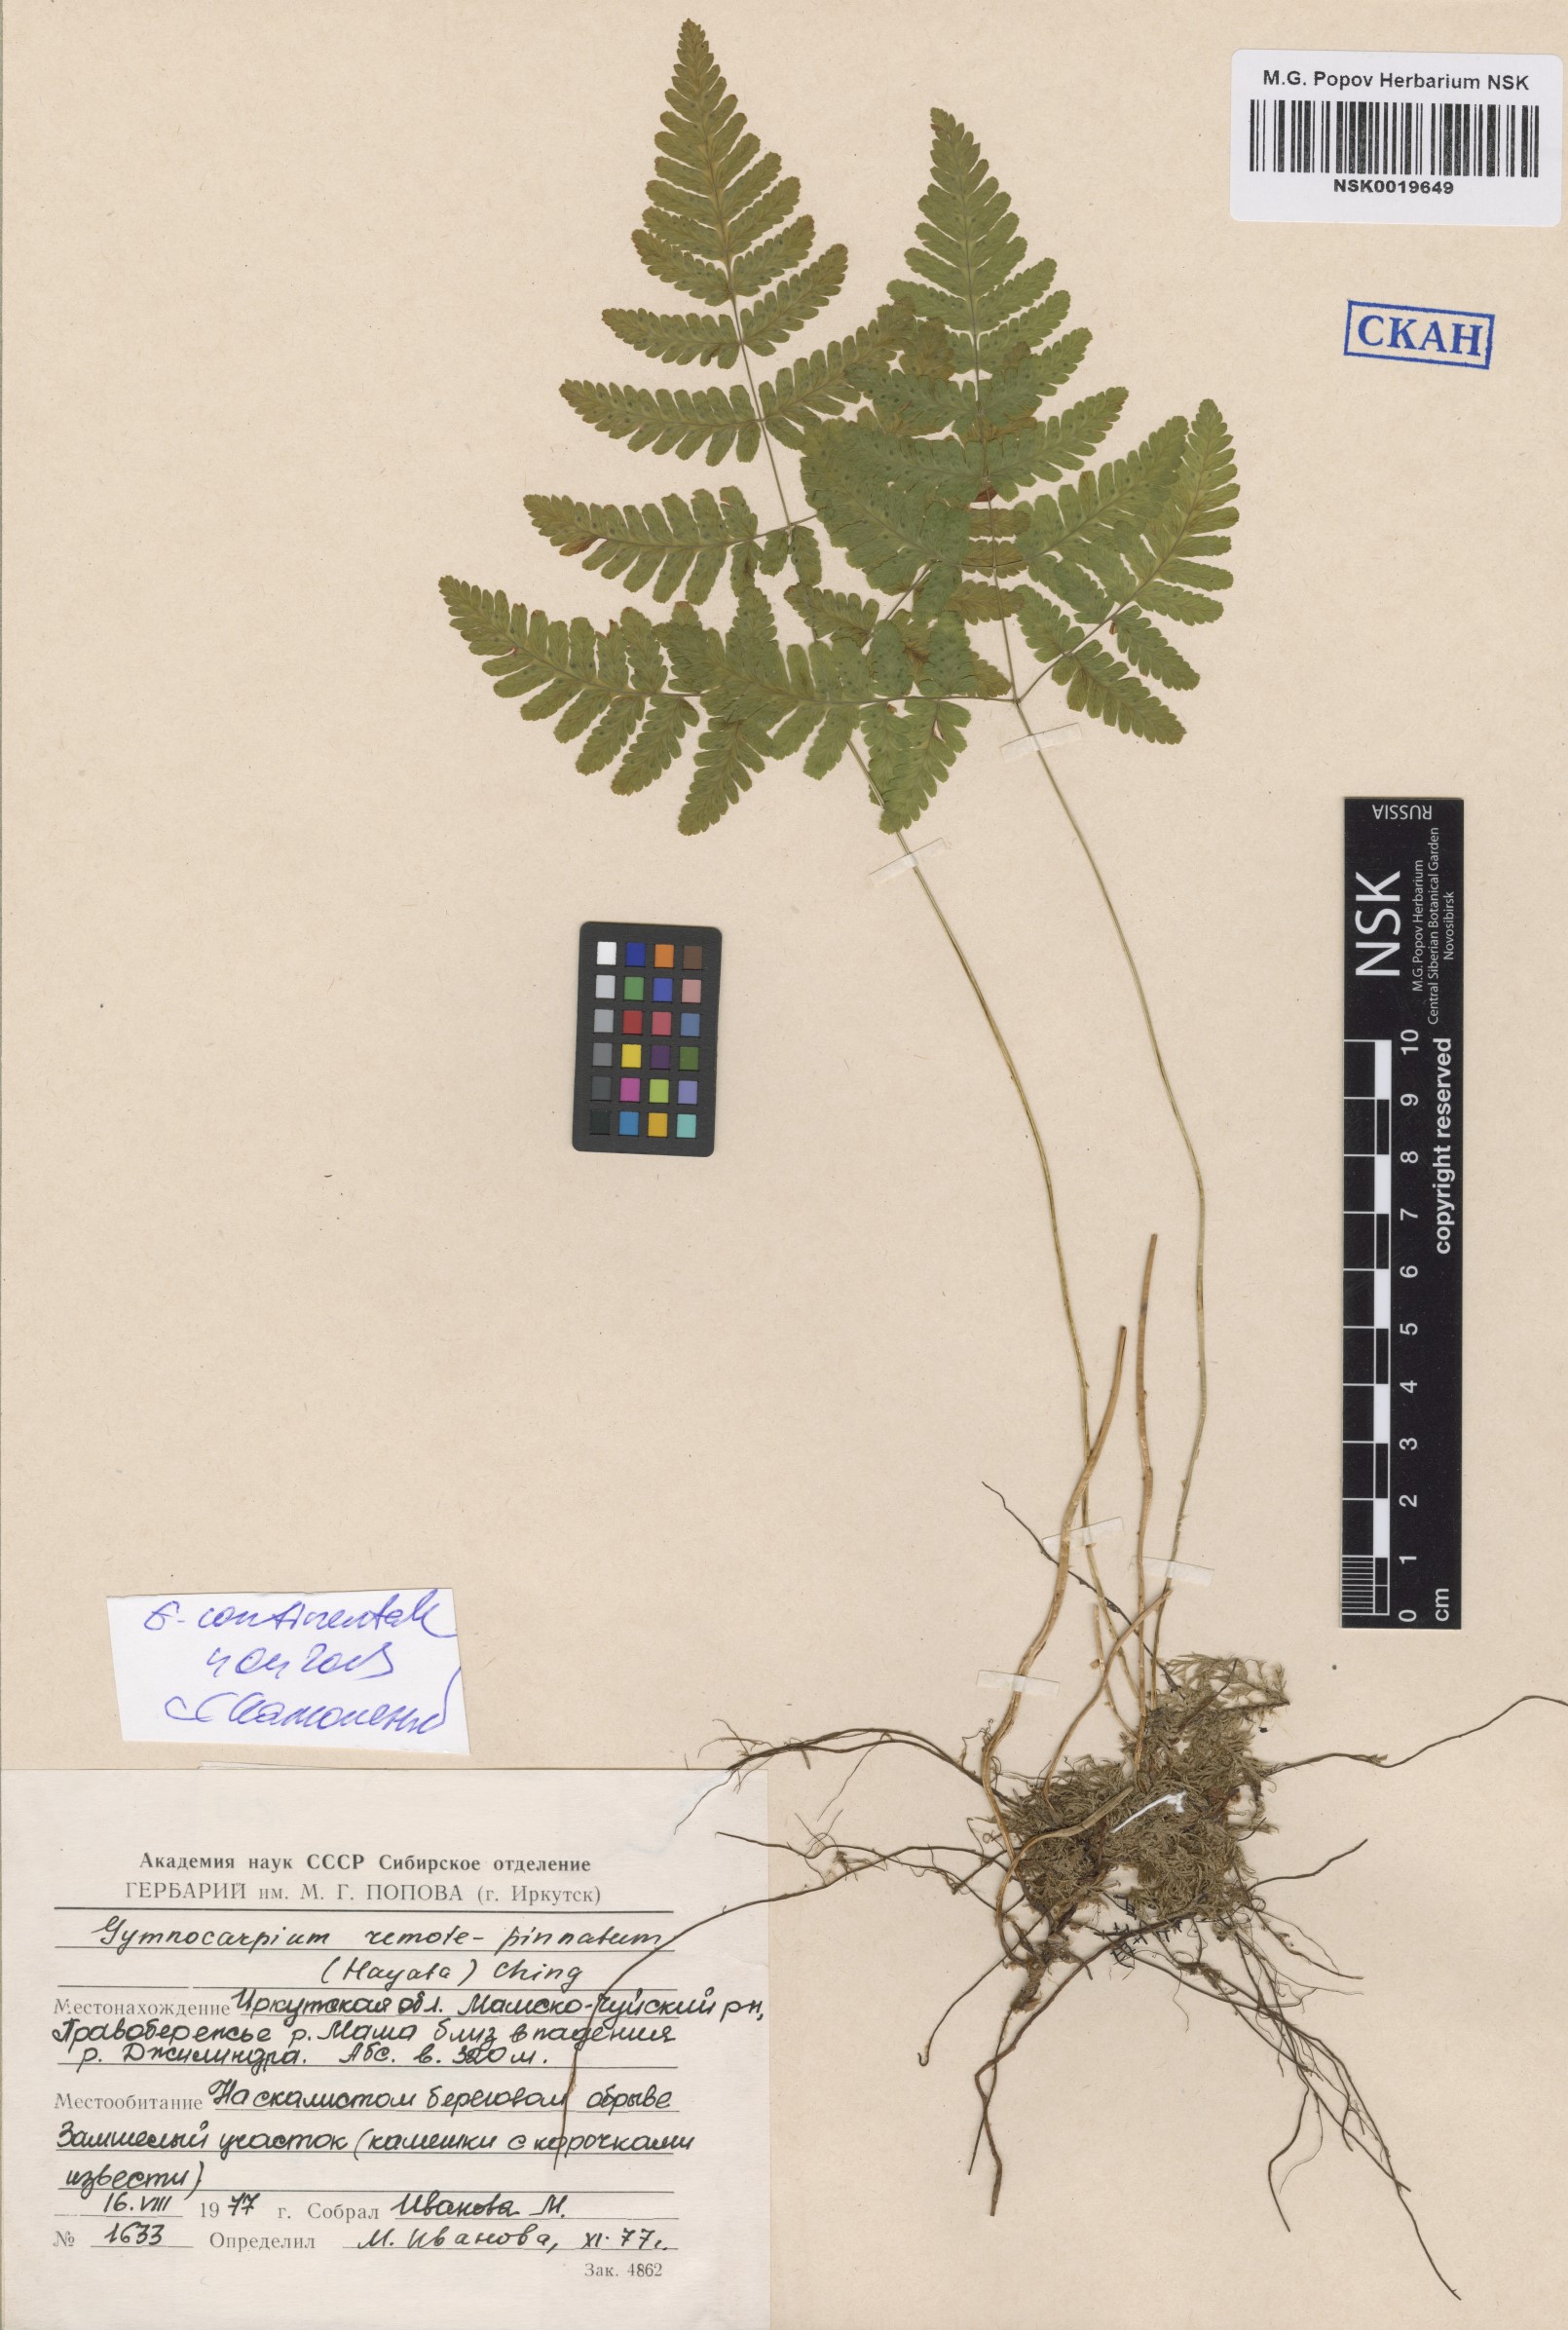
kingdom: Plantae
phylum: Tracheophyta
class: Polypodiopsida
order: Polypodiales
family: Cystopteridaceae
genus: Gymnocarpium
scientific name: Gymnocarpium continentale
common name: Asian oak fern
